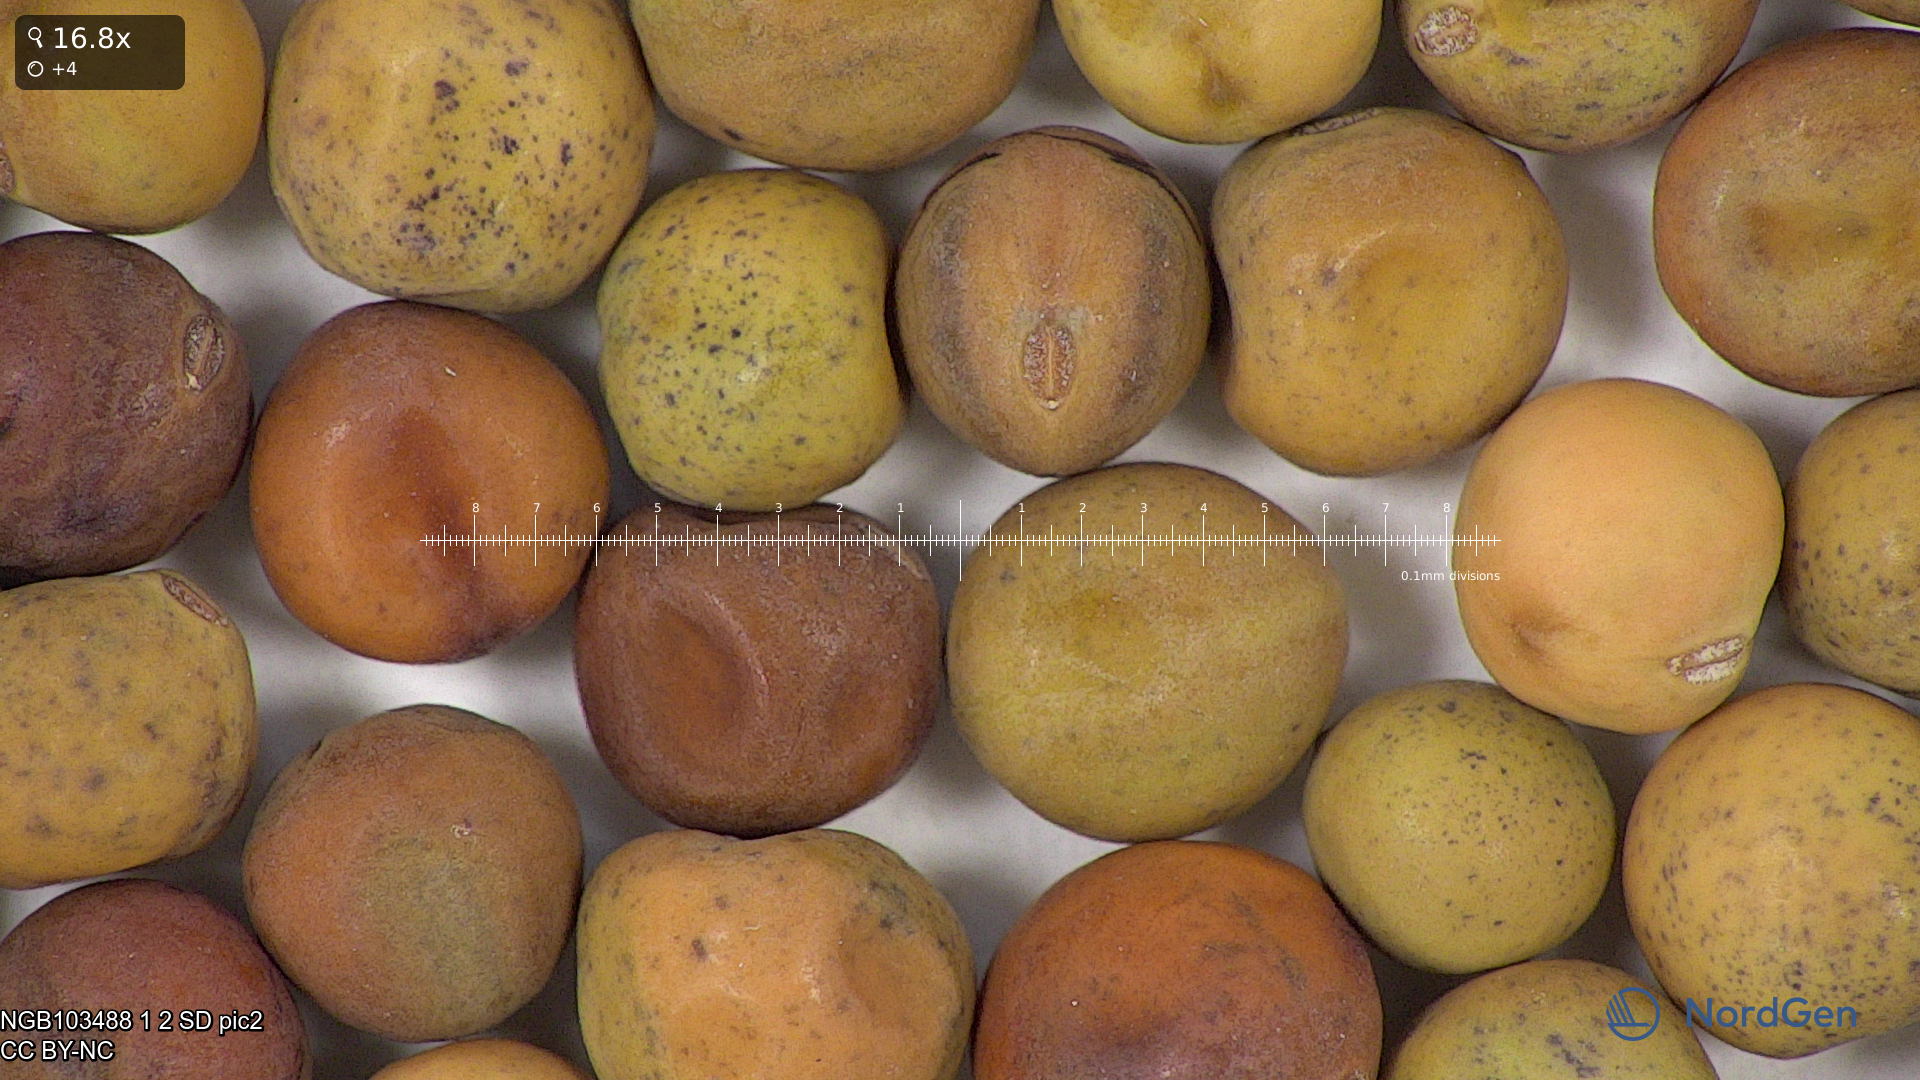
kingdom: Plantae
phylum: Tracheophyta
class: Magnoliopsida
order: Fabales
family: Fabaceae
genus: Lathyrus
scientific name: Lathyrus oleraceus
